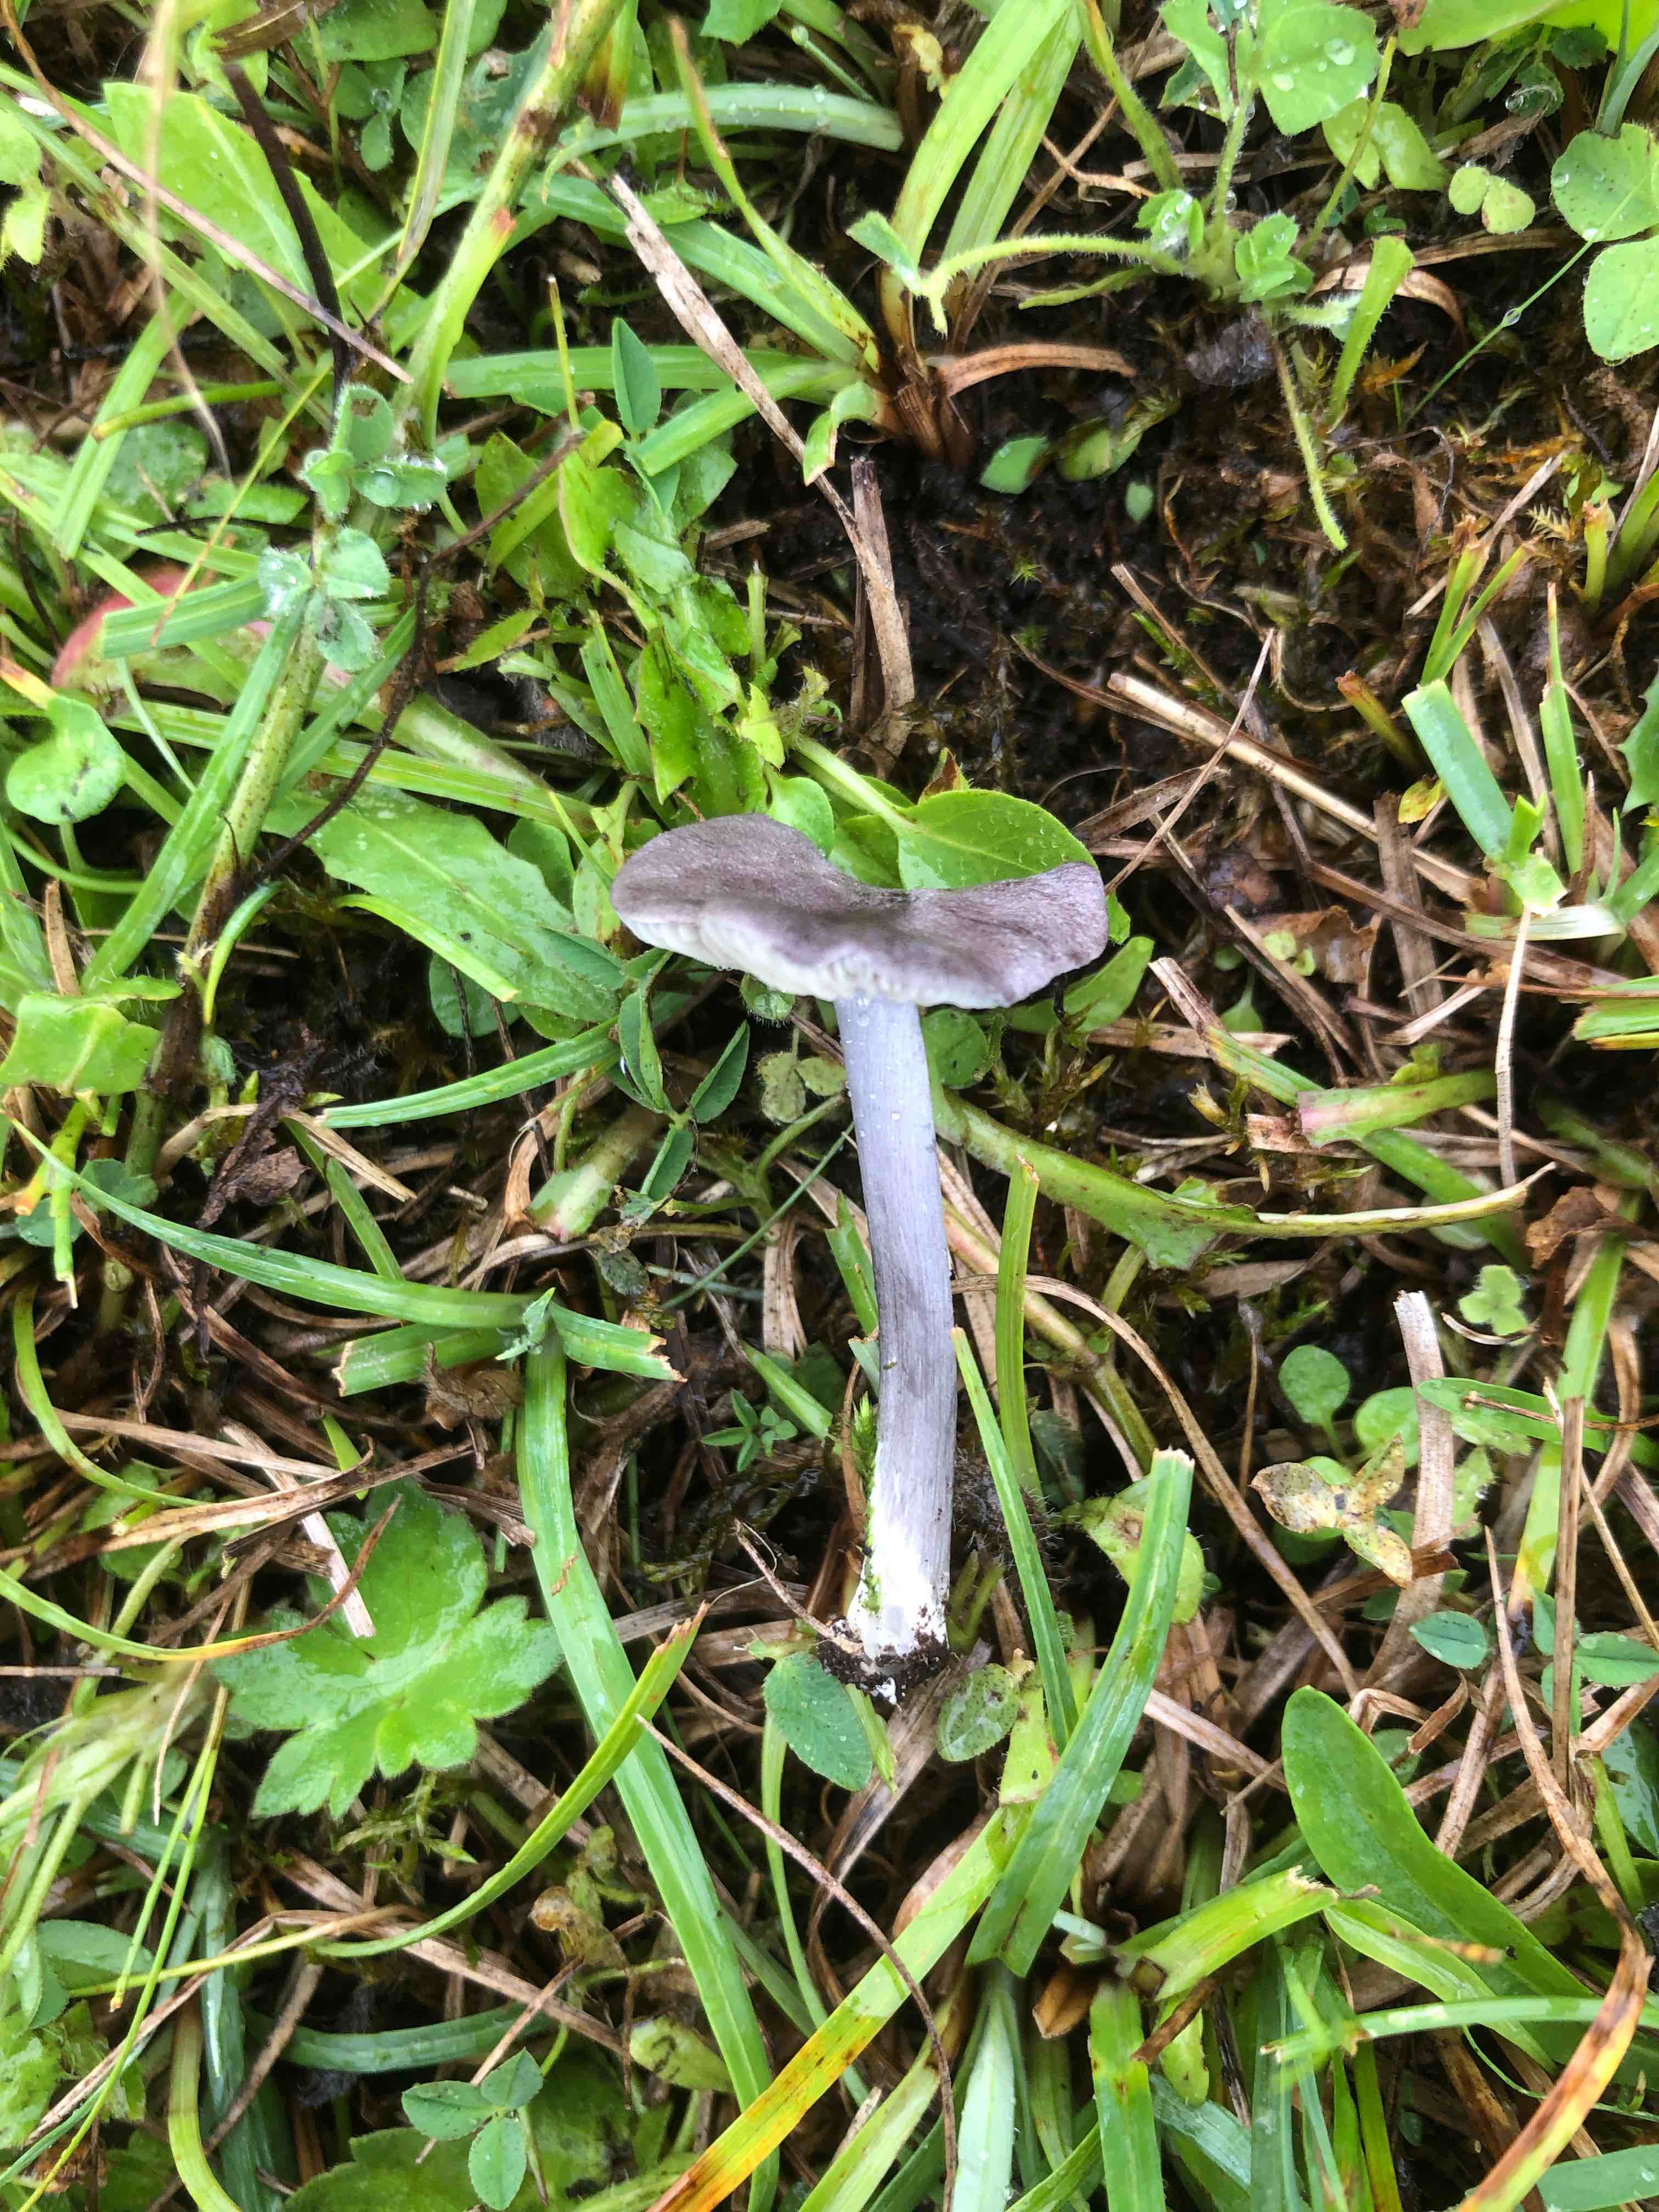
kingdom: Fungi
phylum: Basidiomycota
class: Agaricomycetes
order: Agaricales
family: Entolomataceae
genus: Entoloma
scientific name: Entoloma mougeotii
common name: violetgrå rødblad
